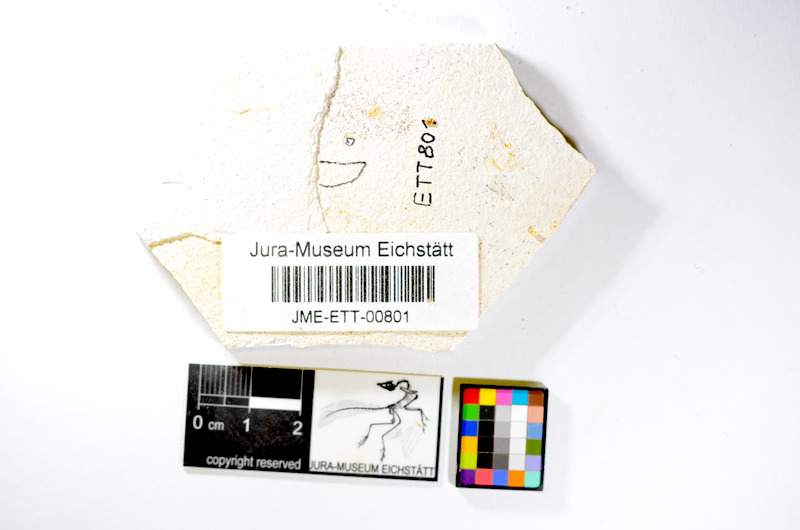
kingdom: Animalia
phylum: Chordata
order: Salmoniformes
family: Orthogonikleithridae
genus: Orthogonikleithrus
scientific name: Orthogonikleithrus hoelli
